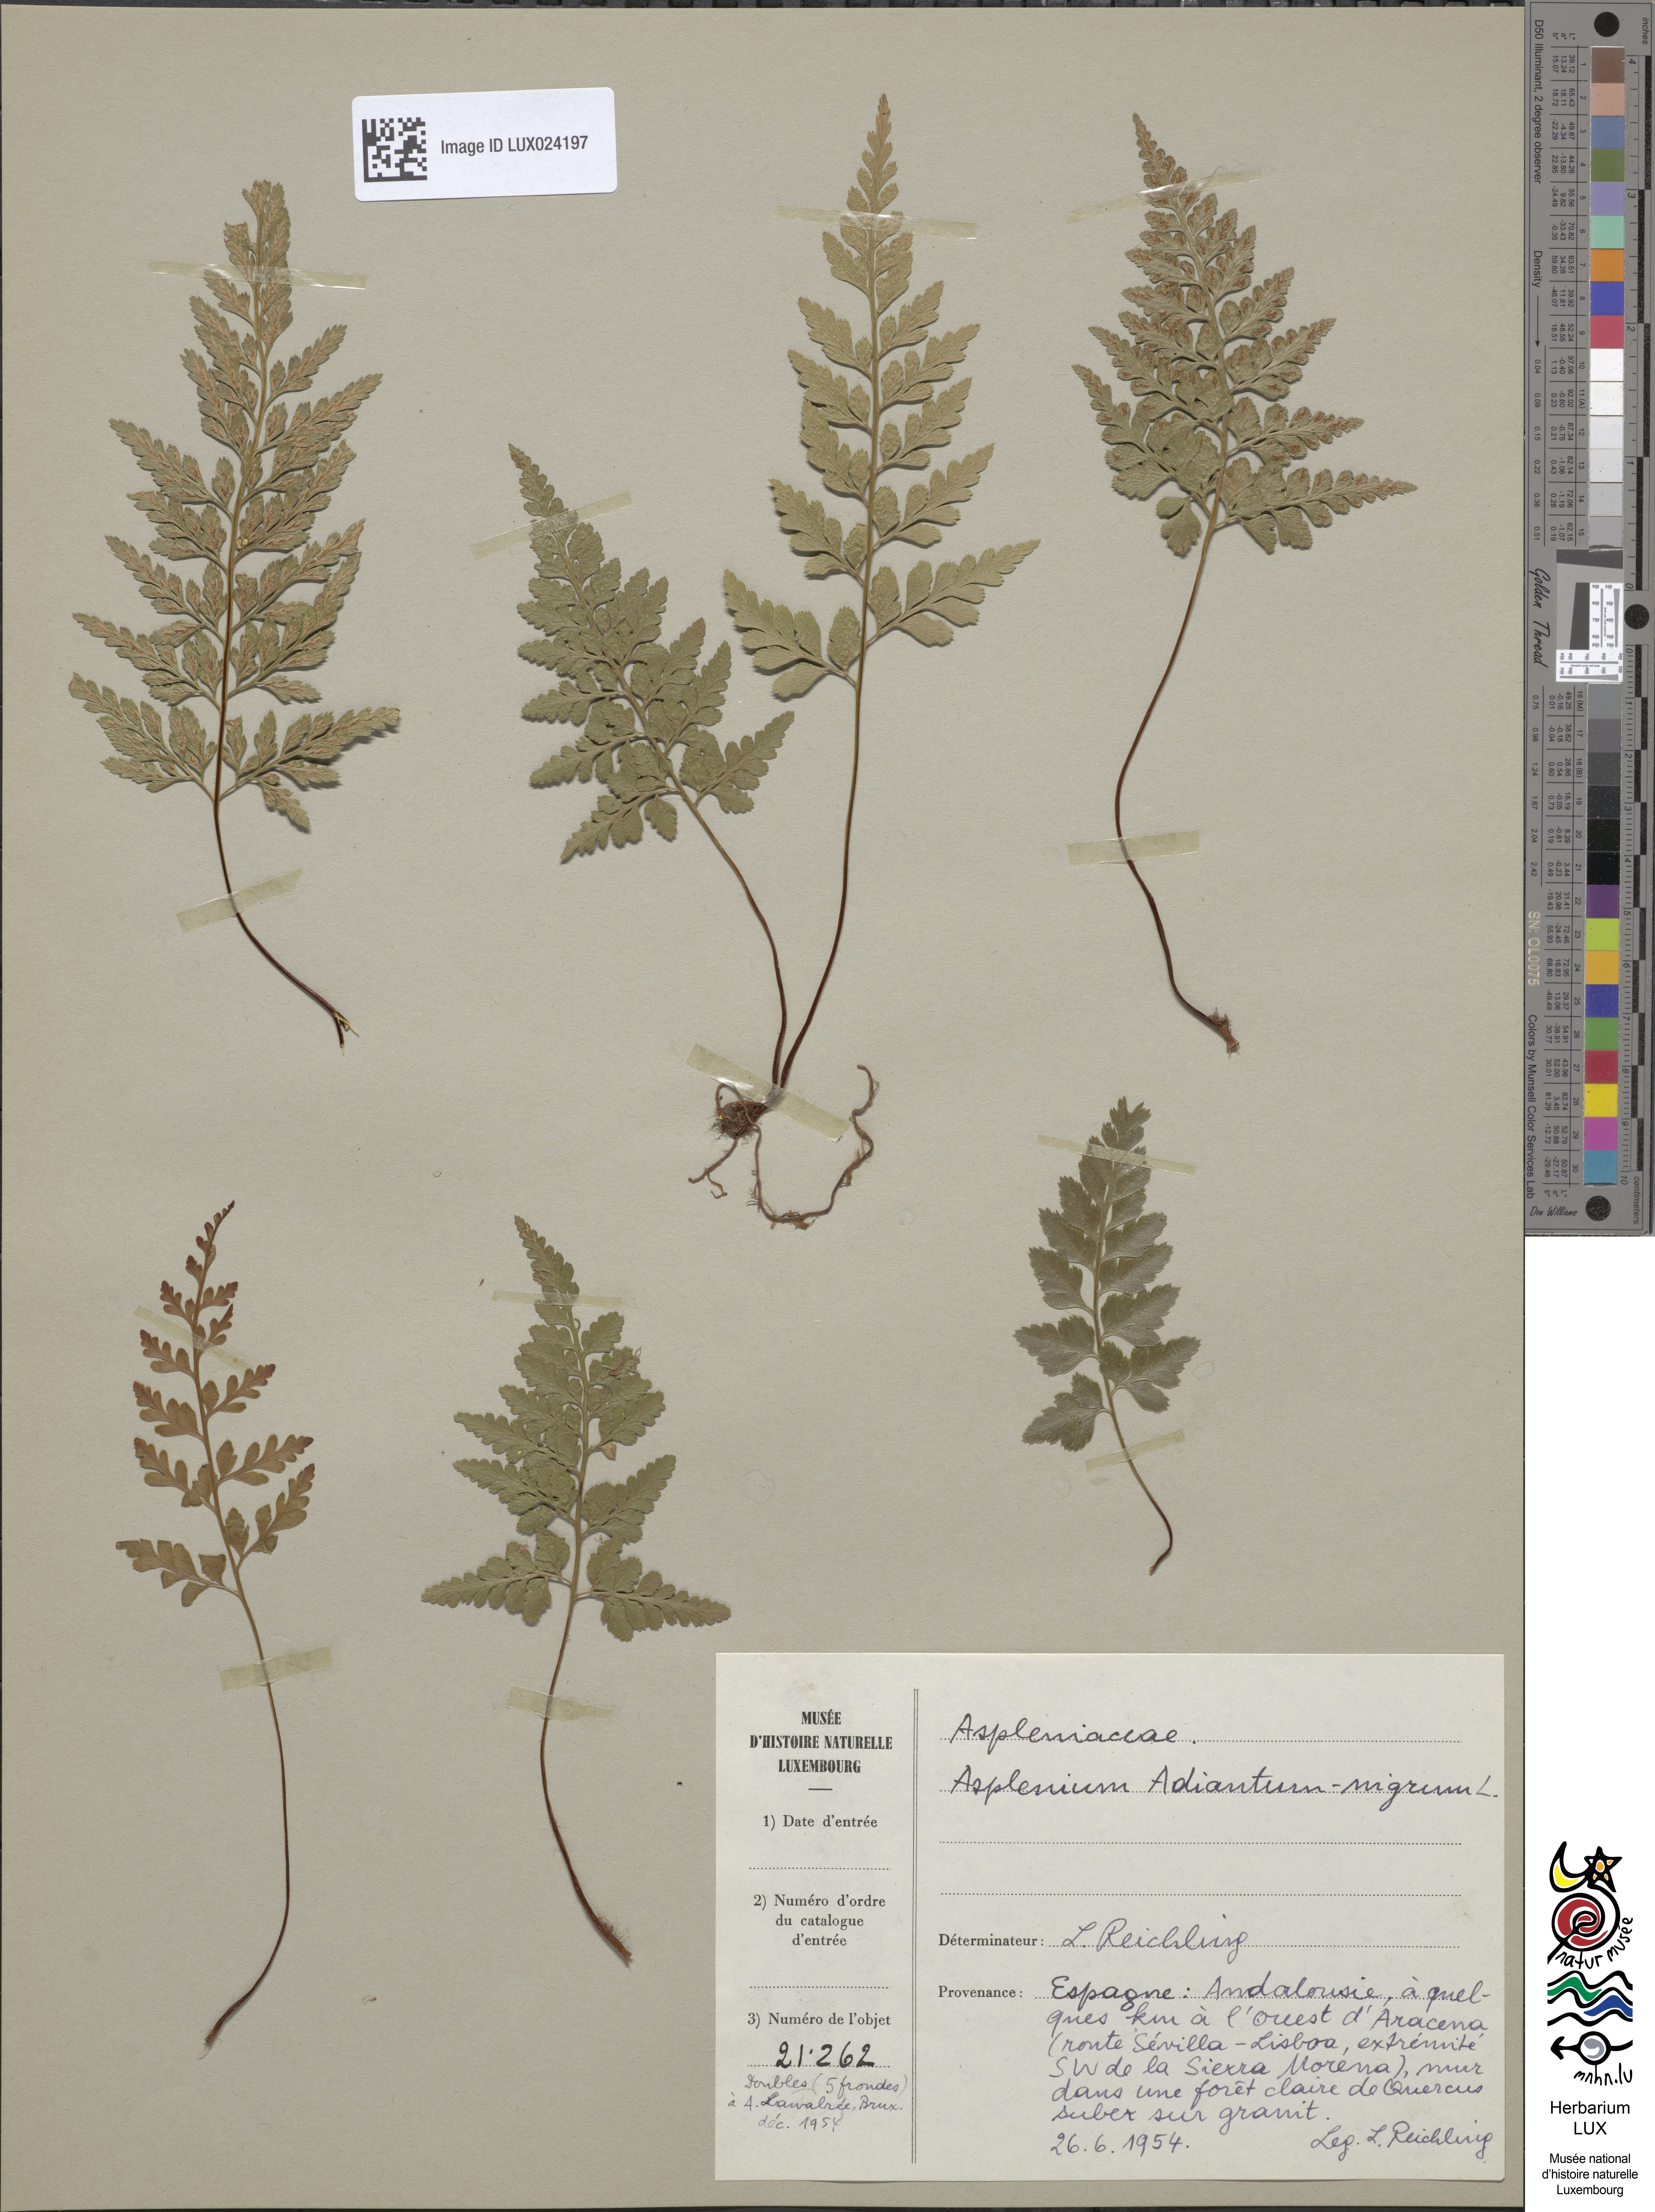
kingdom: Plantae
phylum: Tracheophyta
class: Polypodiopsida
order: Polypodiales
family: Aspleniaceae
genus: Asplenium
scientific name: Asplenium adiantum-nigrum
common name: Black spleenwort
